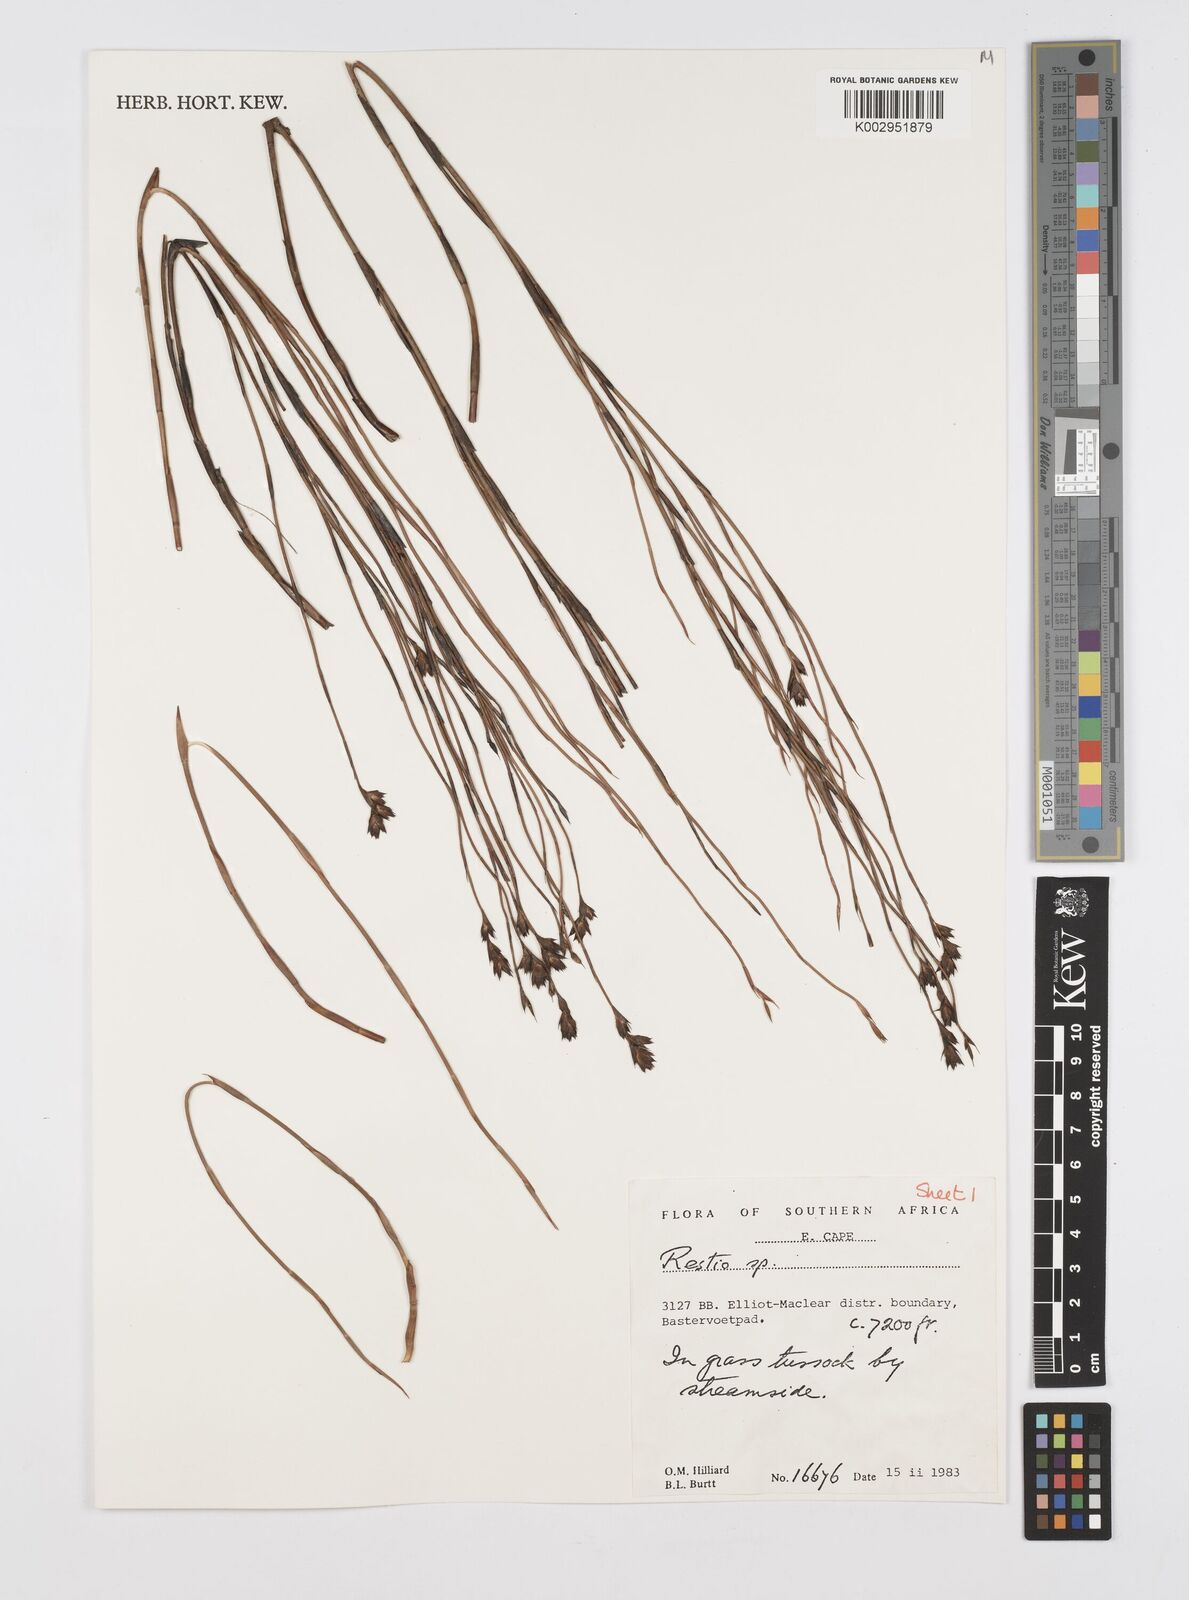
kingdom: Plantae
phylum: Tracheophyta
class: Liliopsida
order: Poales
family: Restionaceae
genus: Restio
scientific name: Restio
